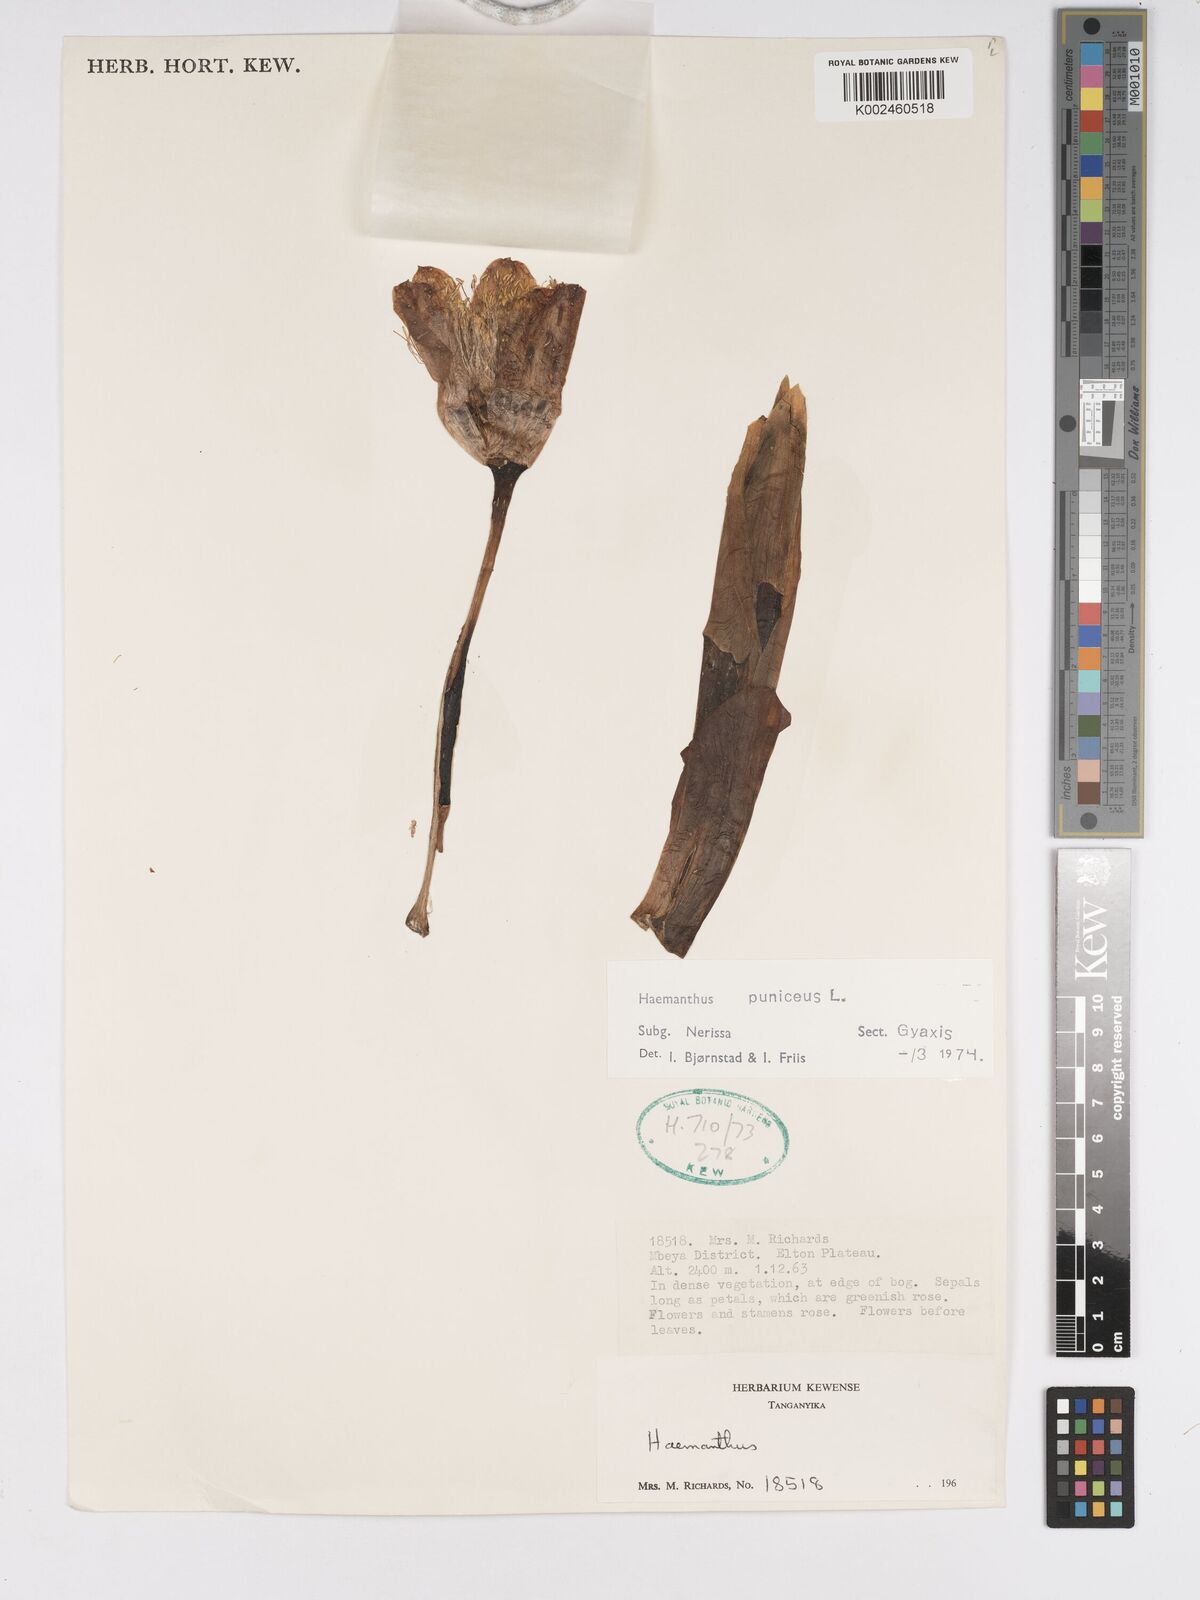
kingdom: Plantae
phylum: Tracheophyta
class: Liliopsida
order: Asparagales
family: Amaryllidaceae
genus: Scadoxus
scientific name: Scadoxus puniceus
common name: Royal-paintbrush
